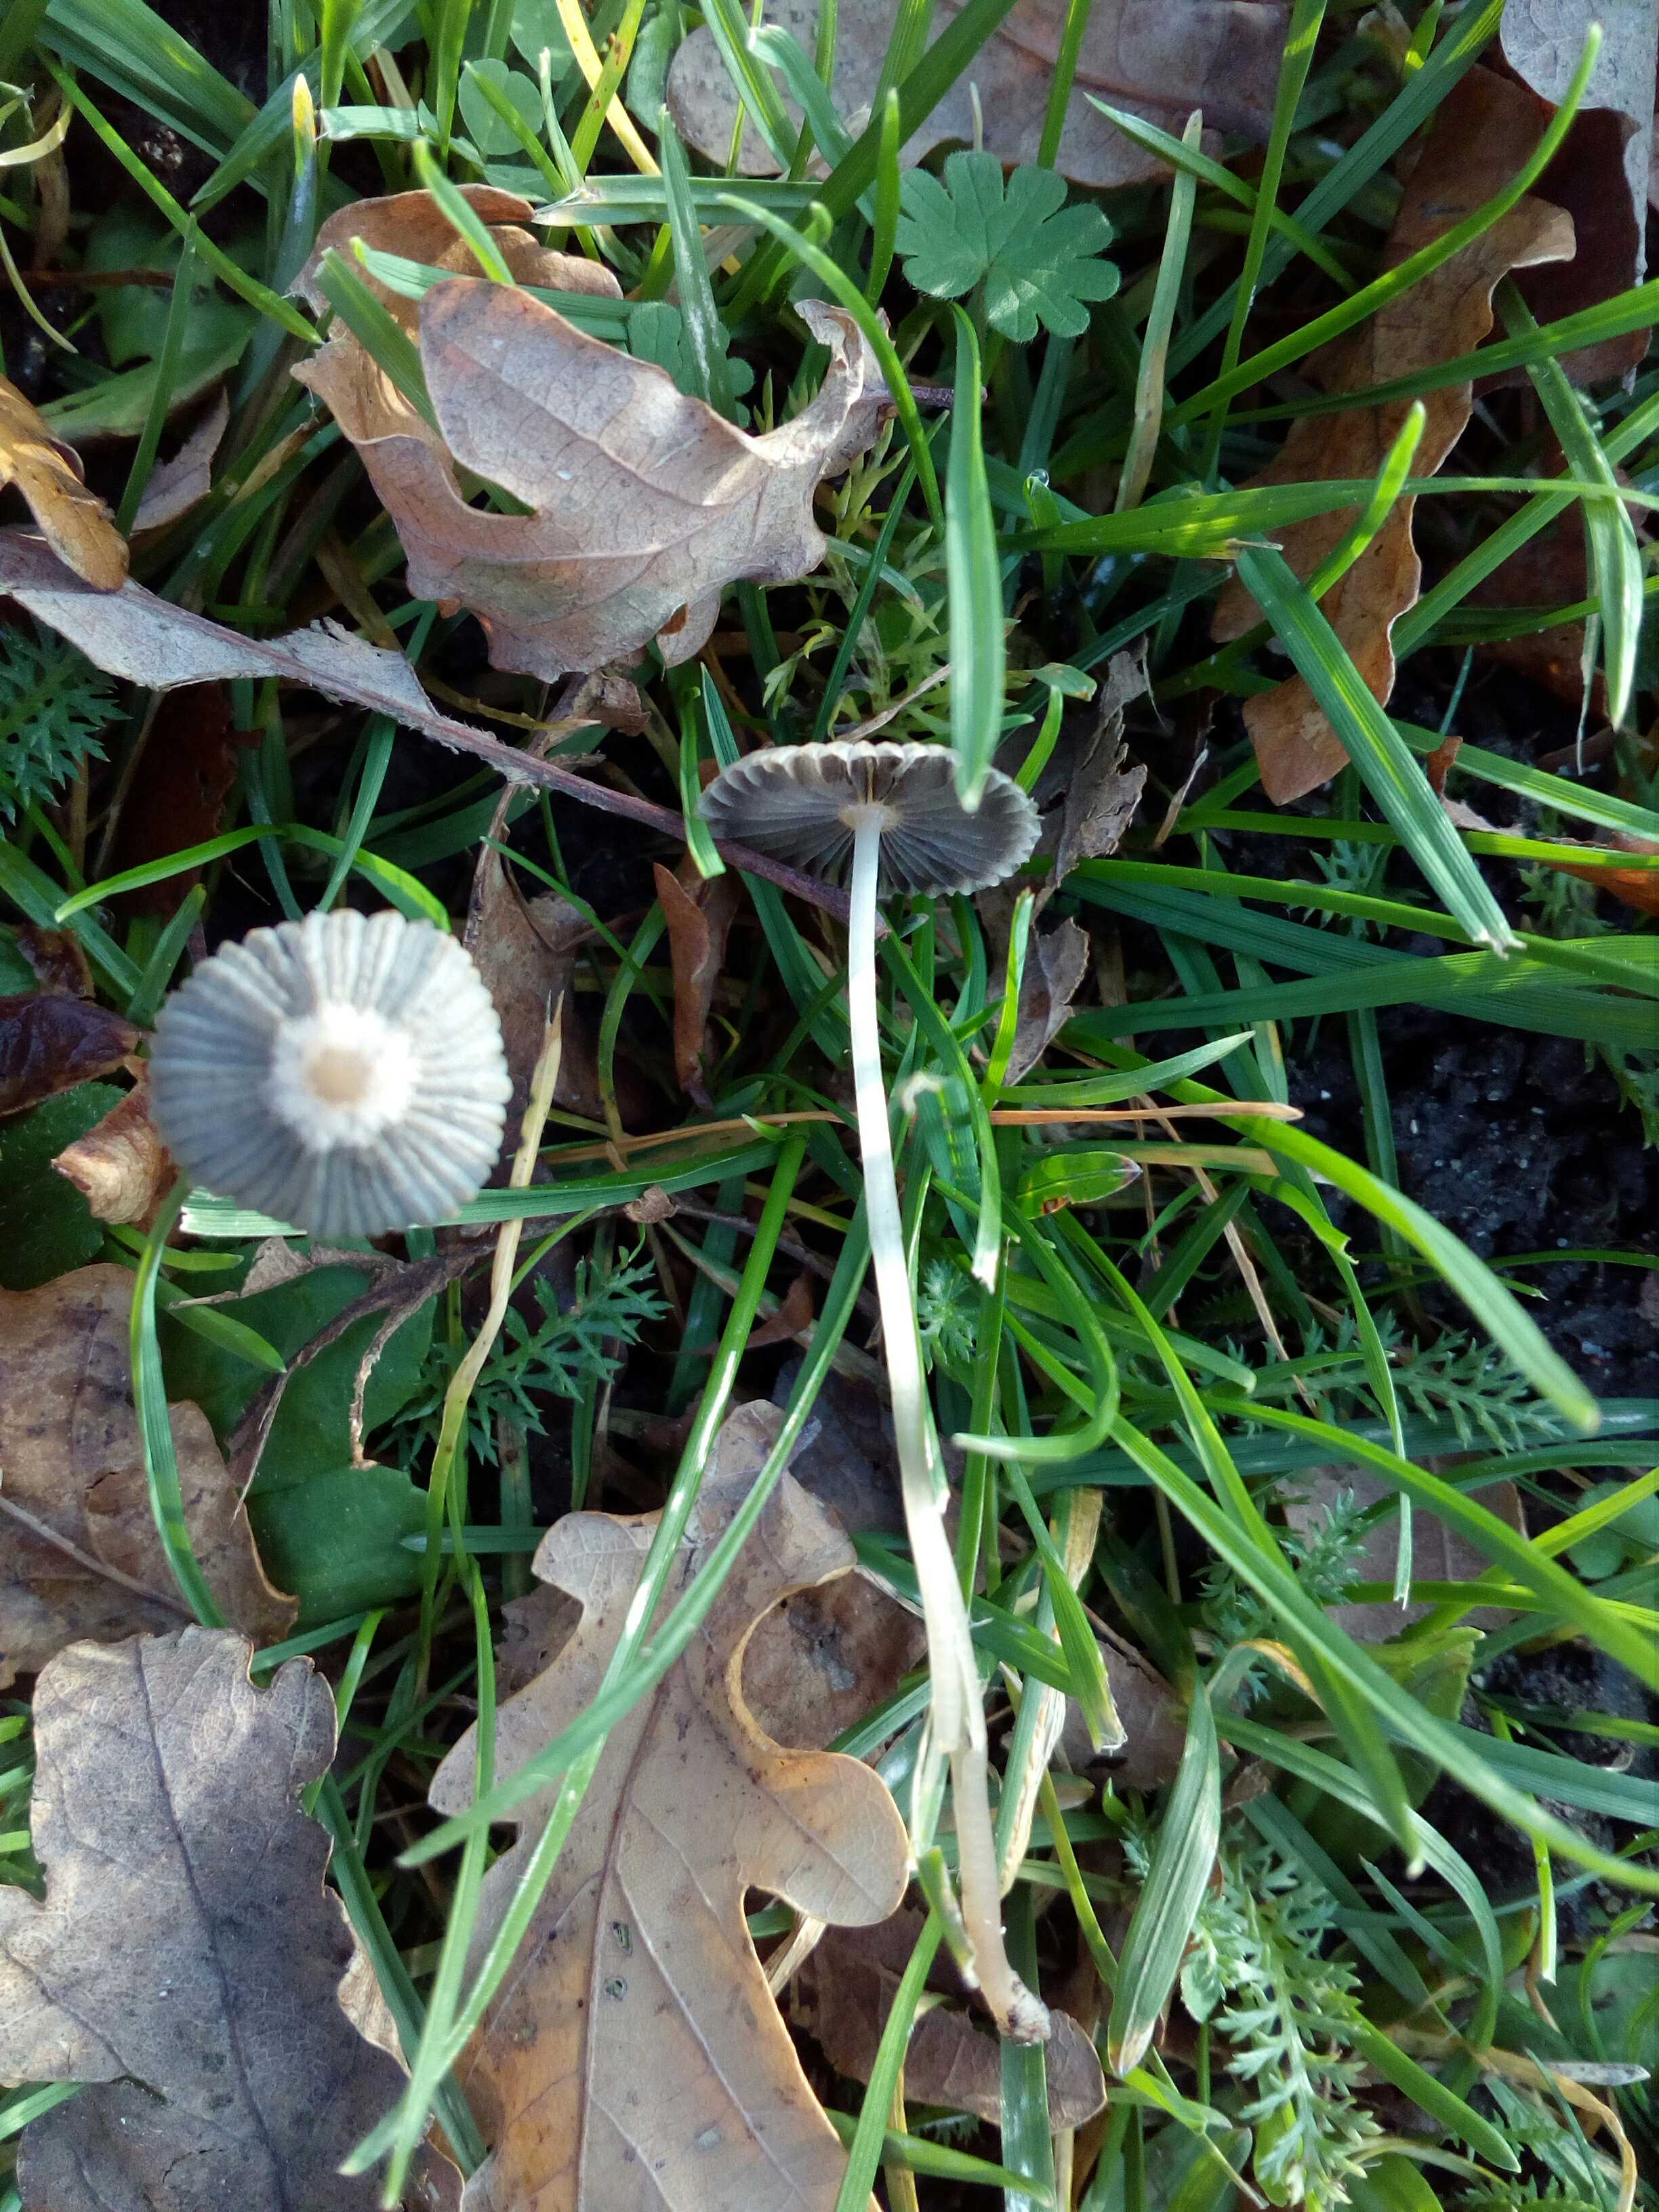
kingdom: Fungi
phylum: Basidiomycota
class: Agaricomycetes
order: Agaricales
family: Psathyrellaceae
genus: Parasola
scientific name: Parasola plicatilis
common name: plæne-hjulhat
